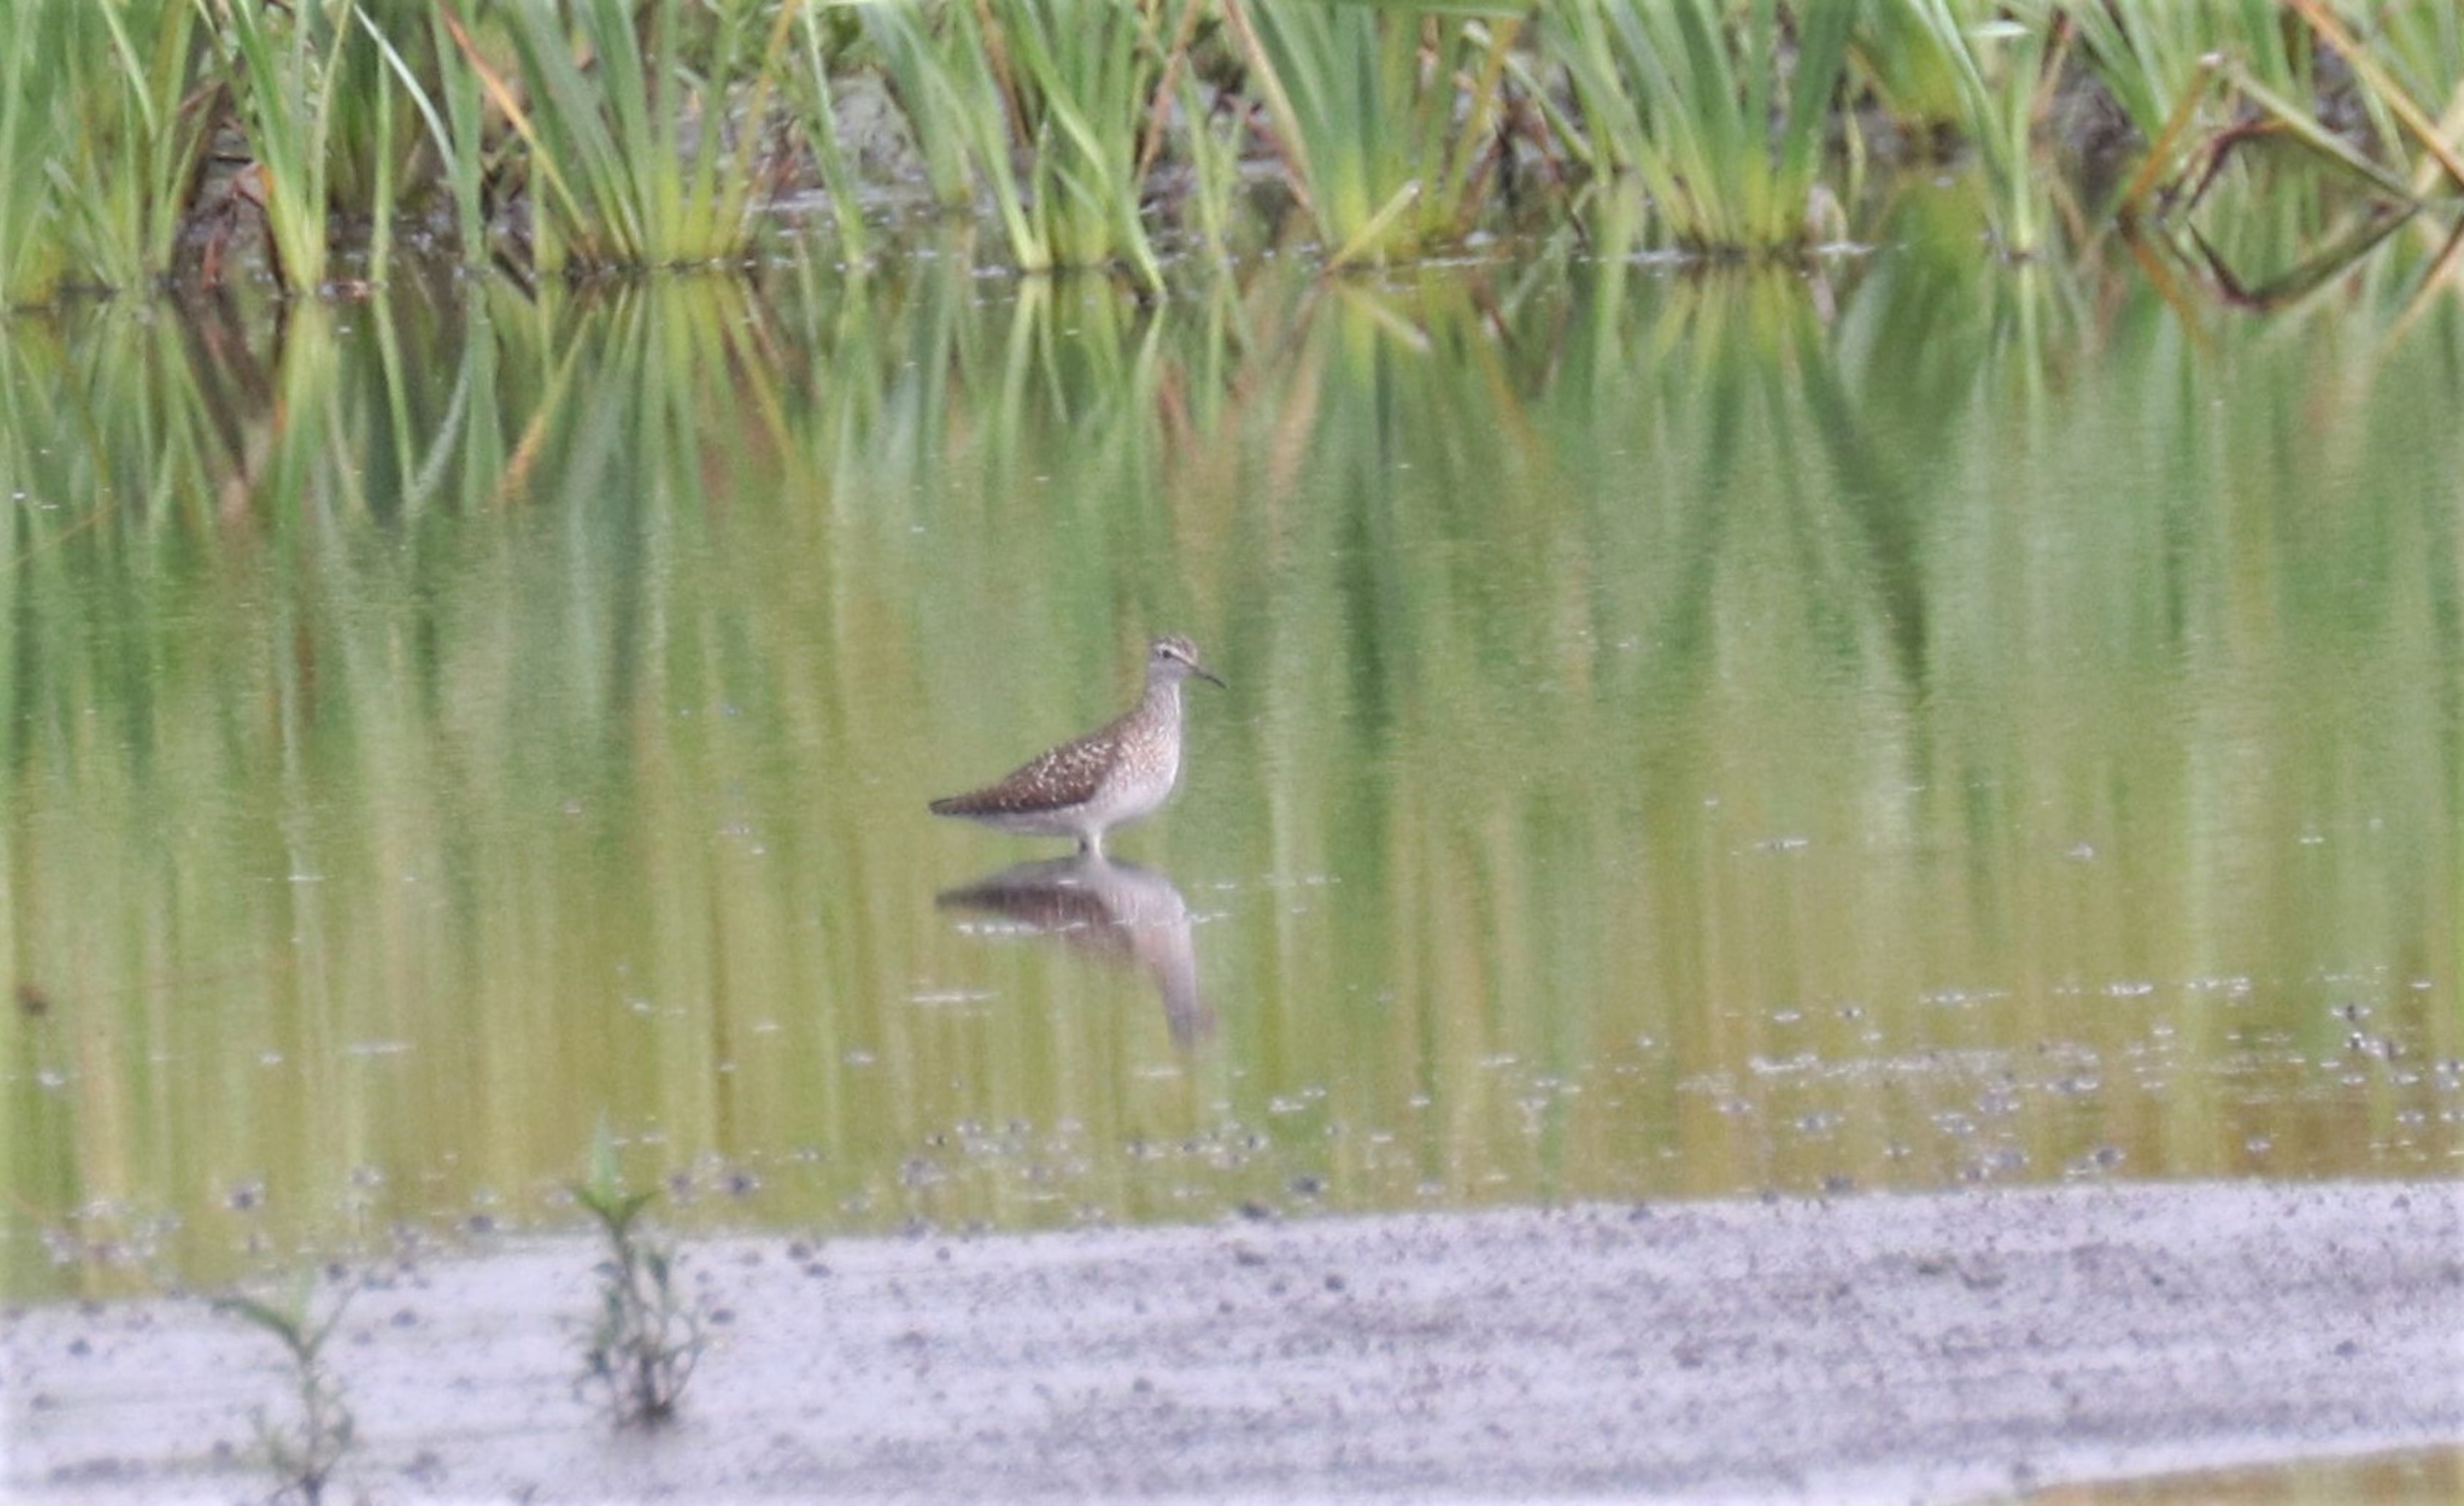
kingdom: Animalia
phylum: Chordata
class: Aves
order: Charadriiformes
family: Scolopacidae
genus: Tringa
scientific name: Tringa glareola
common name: Tinksmed
